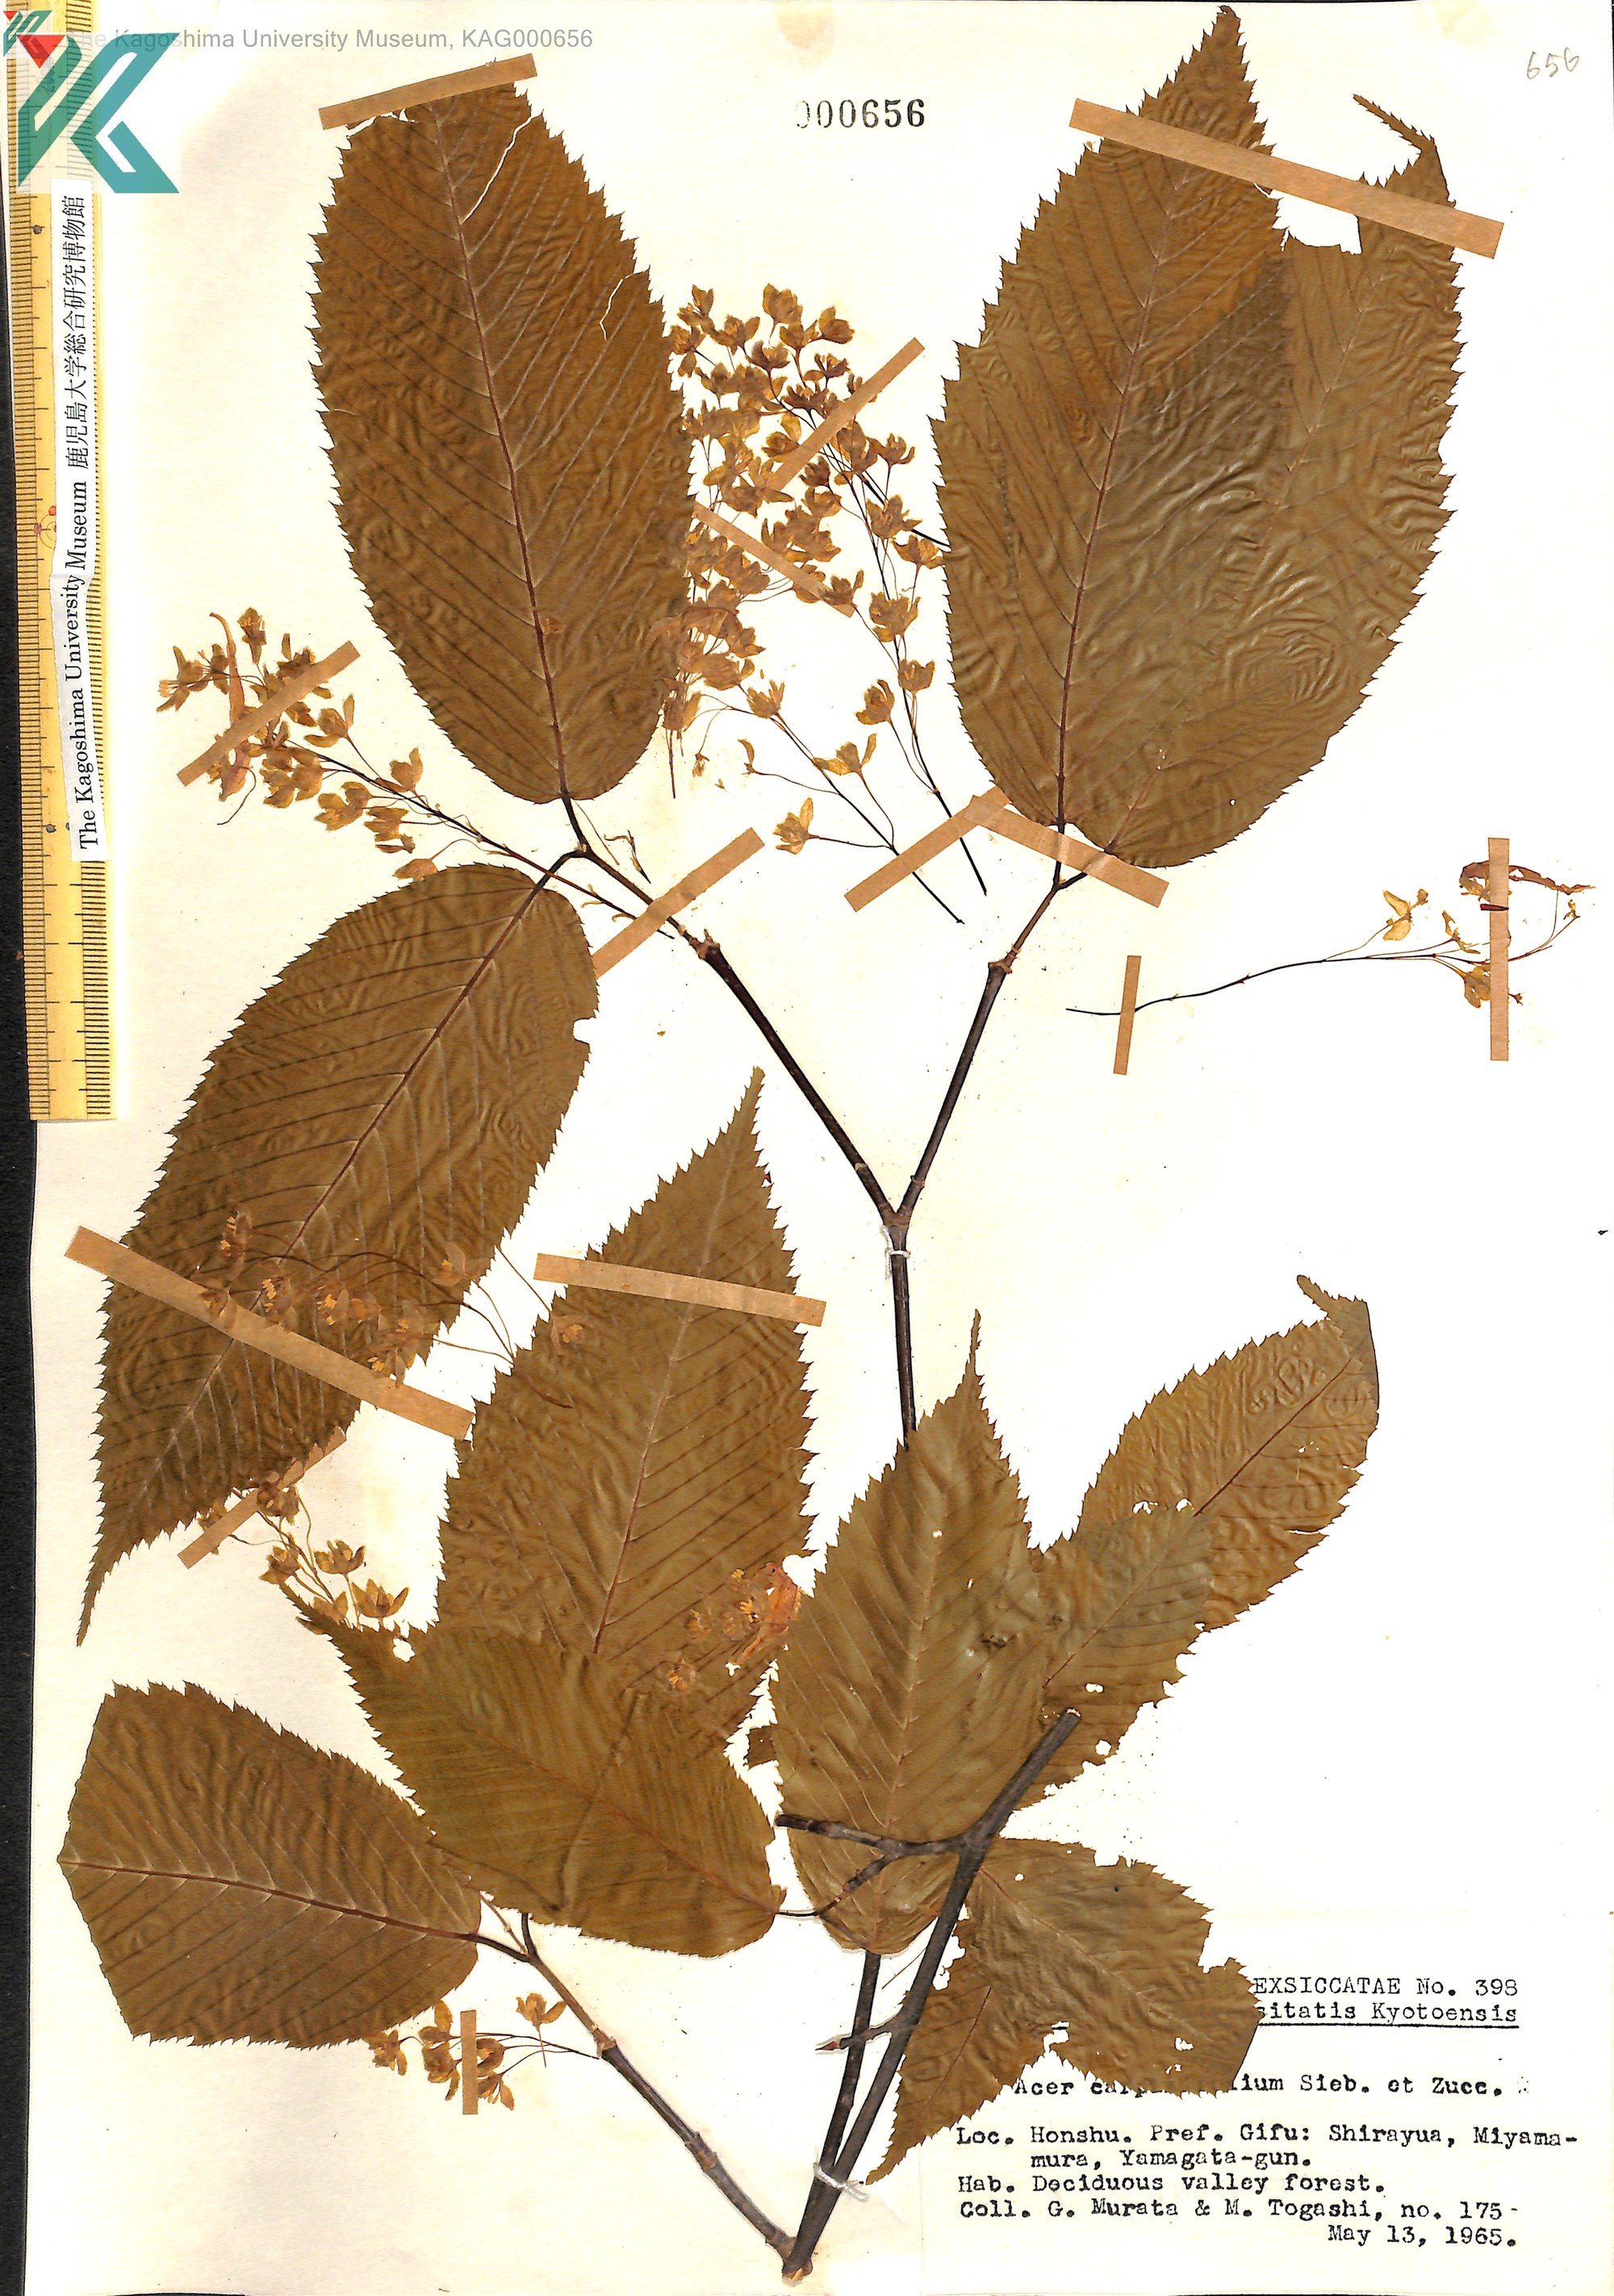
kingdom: Plantae
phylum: Tracheophyta
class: Magnoliopsida
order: Sapindales
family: Sapindaceae
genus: Acer
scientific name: Acer carpinifolium
